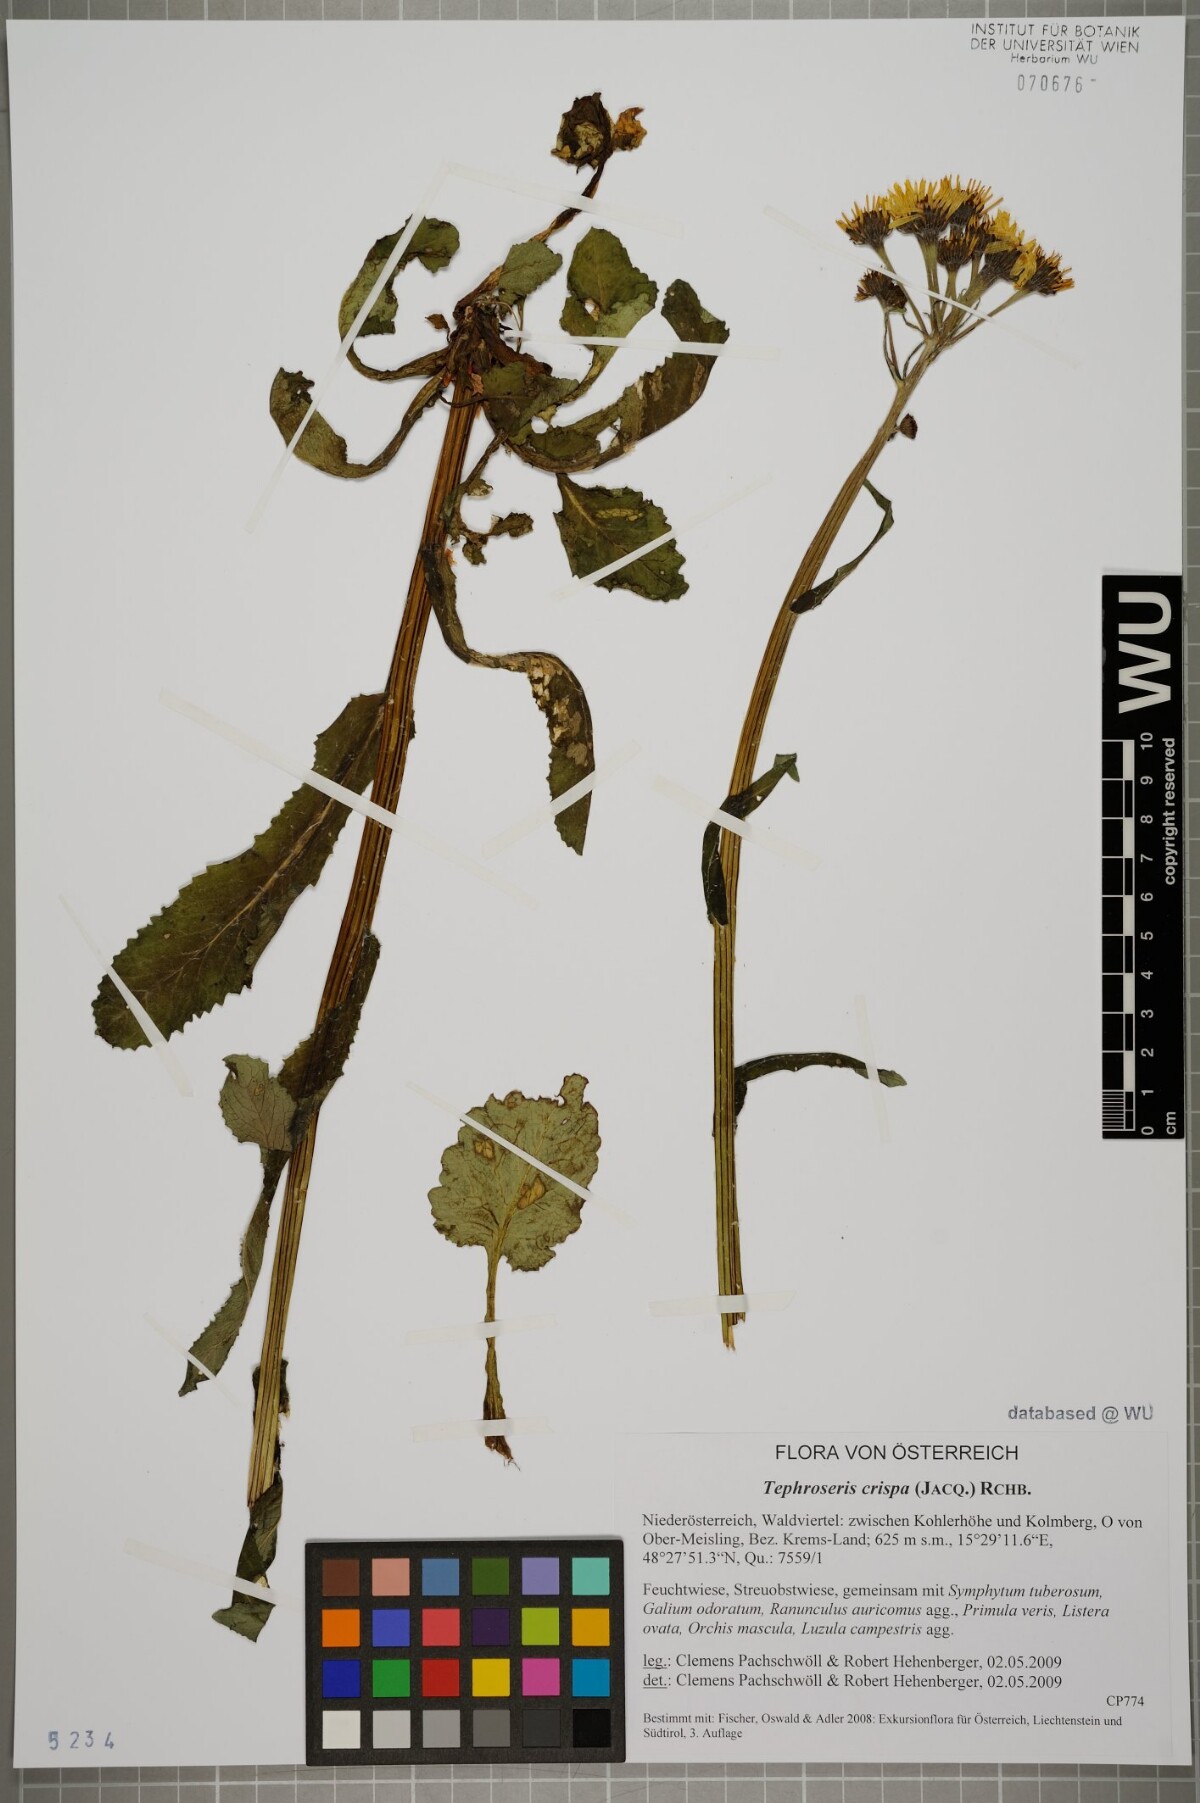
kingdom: Plantae
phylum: Tracheophyta
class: Magnoliopsida
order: Asterales
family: Asteraceae
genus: Tephroseris
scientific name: Tephroseris crispa
